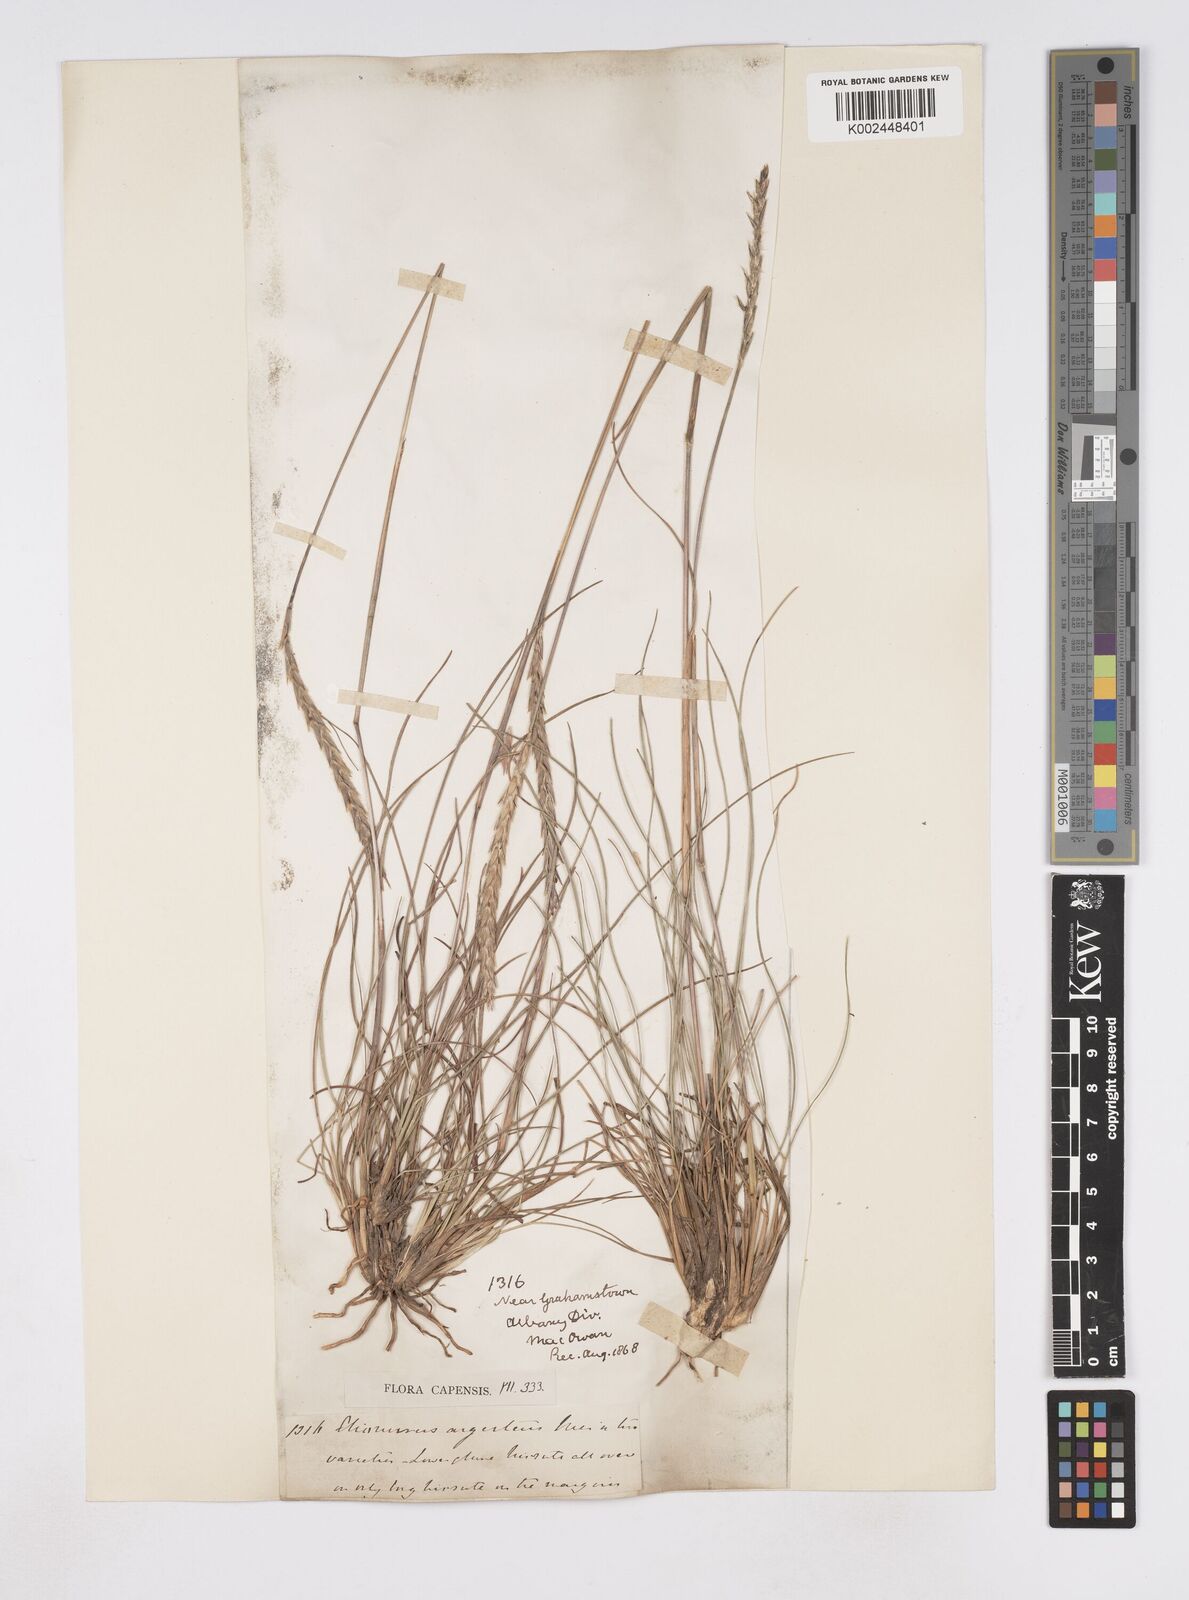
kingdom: Plantae
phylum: Tracheophyta
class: Liliopsida
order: Poales
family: Poaceae
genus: Elionurus
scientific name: Elionurus muticus
